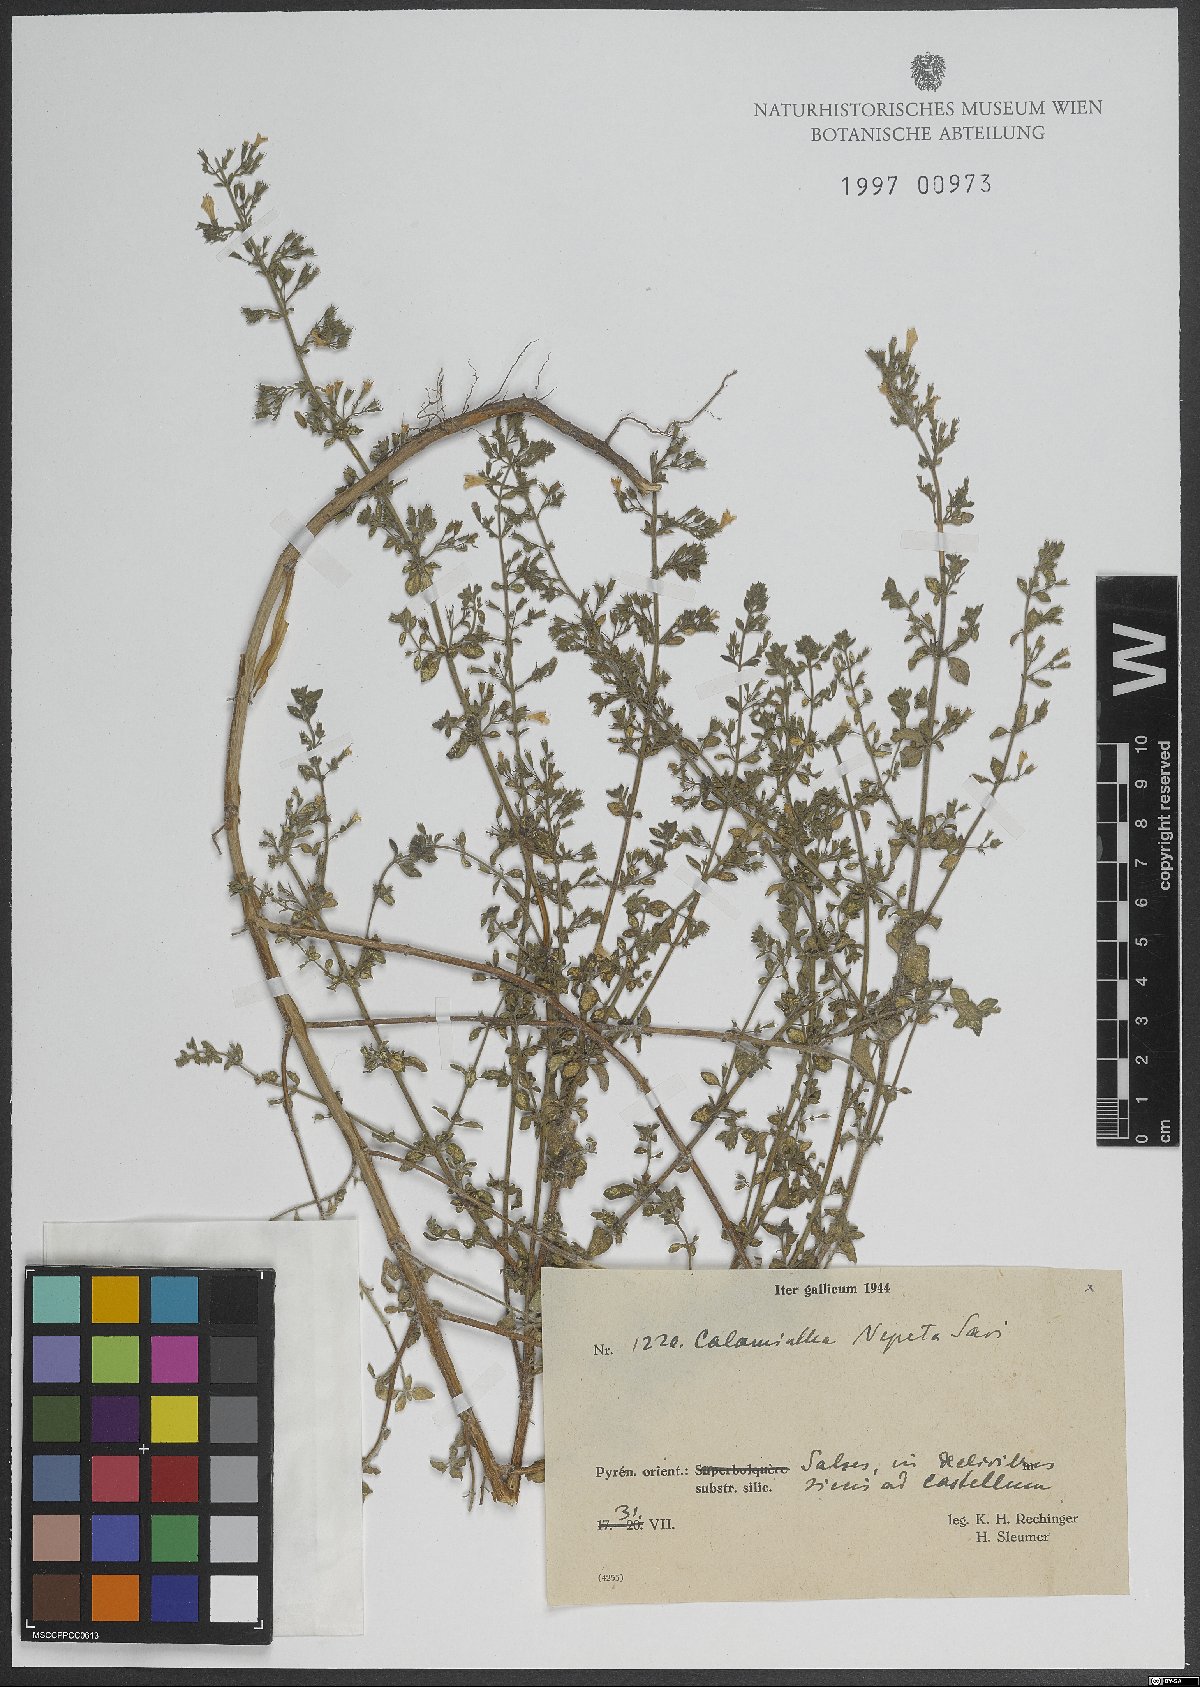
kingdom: Plantae
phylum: Tracheophyta
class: Magnoliopsida
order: Lamiales
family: Lamiaceae
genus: Clinopodium
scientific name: Clinopodium nepeta
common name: Lesser calamint
